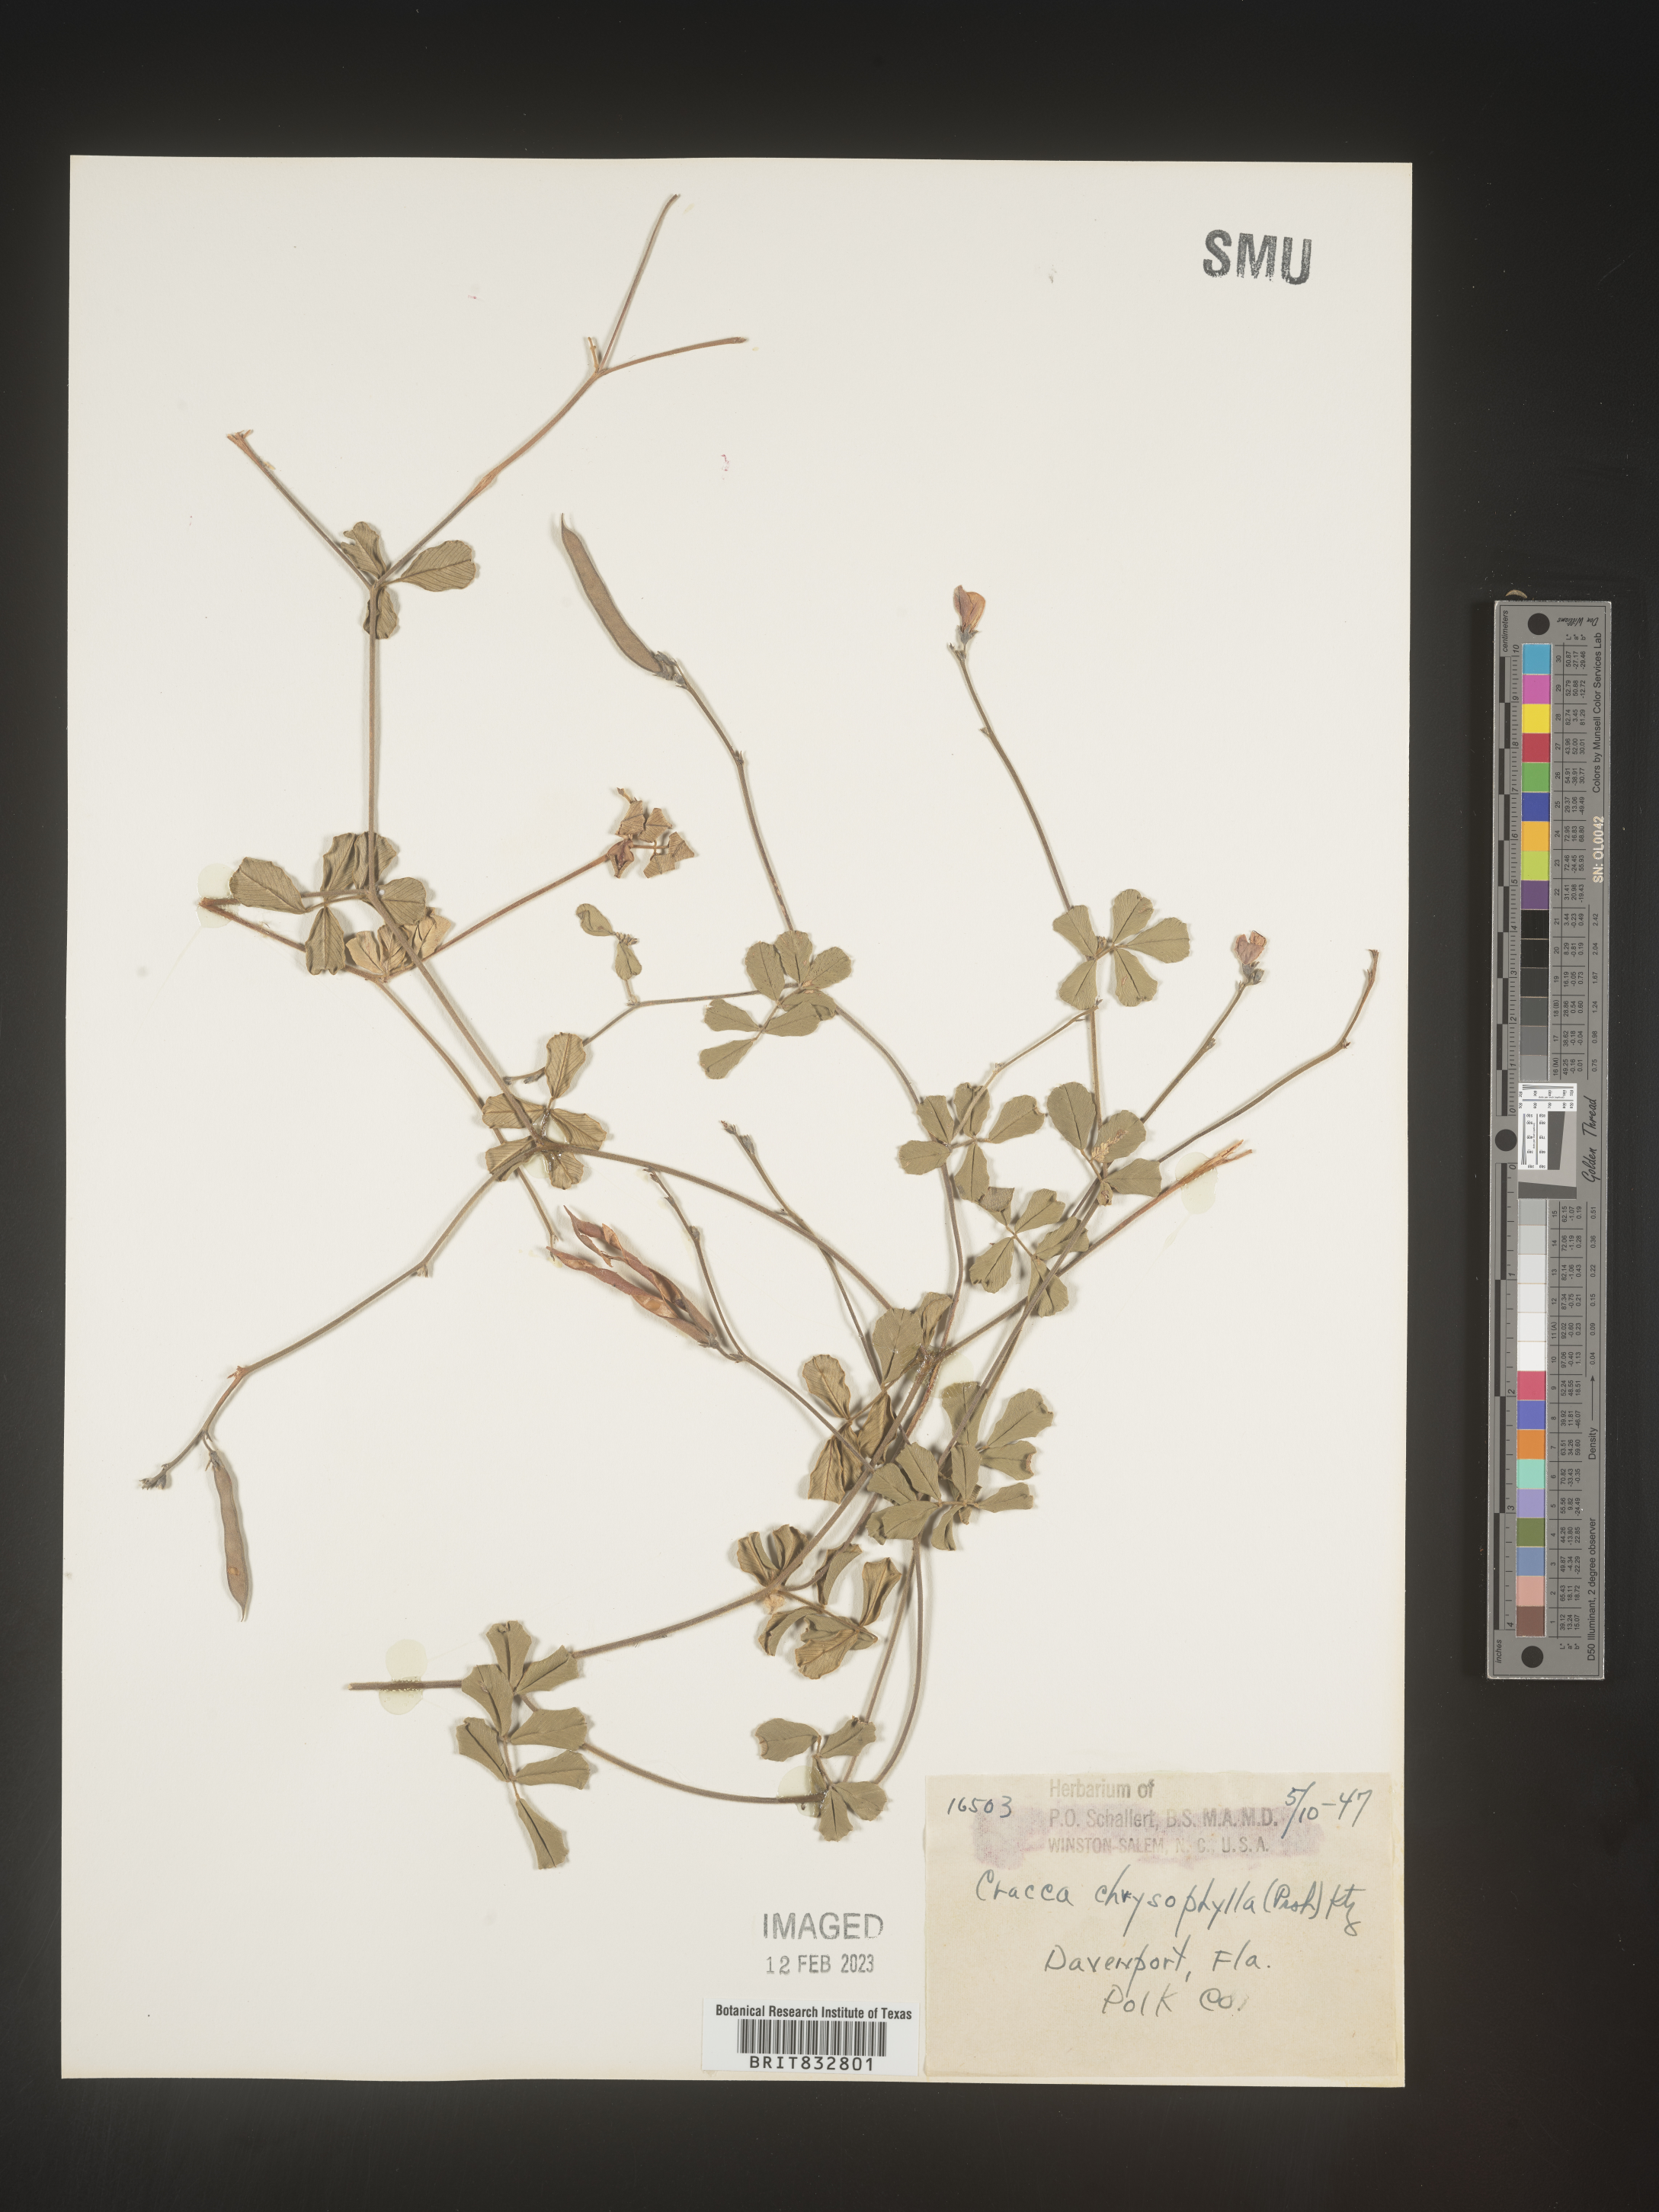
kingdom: Plantae
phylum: Tracheophyta
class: Magnoliopsida
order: Fabales
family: Fabaceae
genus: Tephrosia
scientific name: Tephrosia chrysophylla
